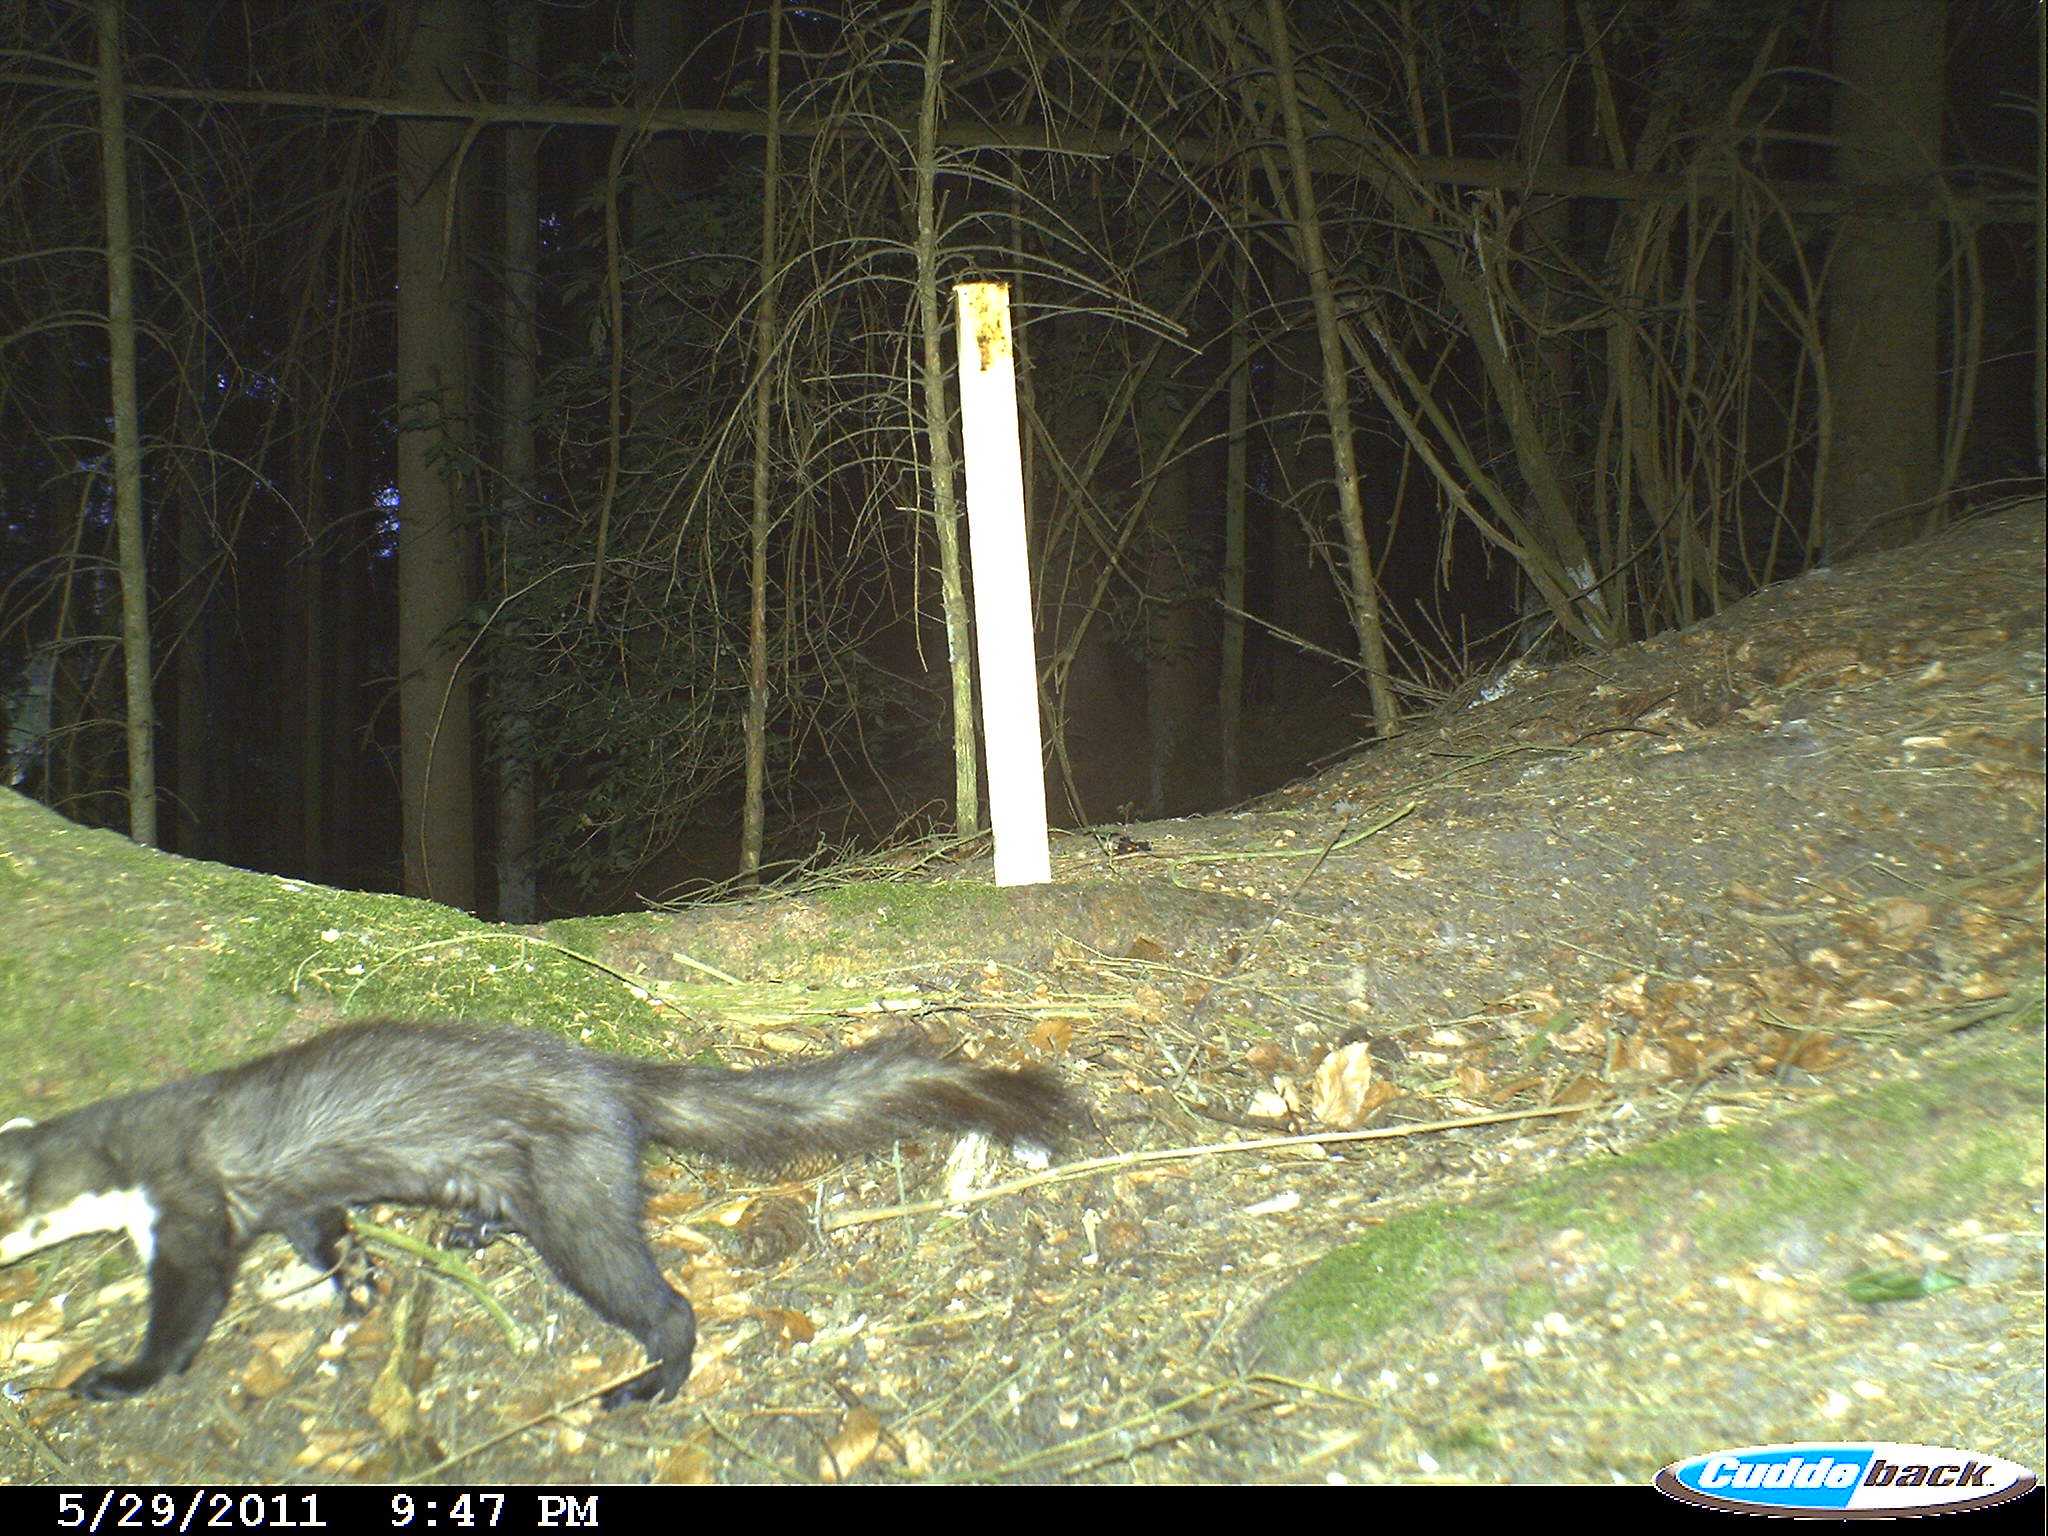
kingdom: Animalia
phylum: Chordata
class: Mammalia
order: Carnivora
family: Mustelidae
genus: Martes
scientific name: Martes foina
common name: Beech marten
